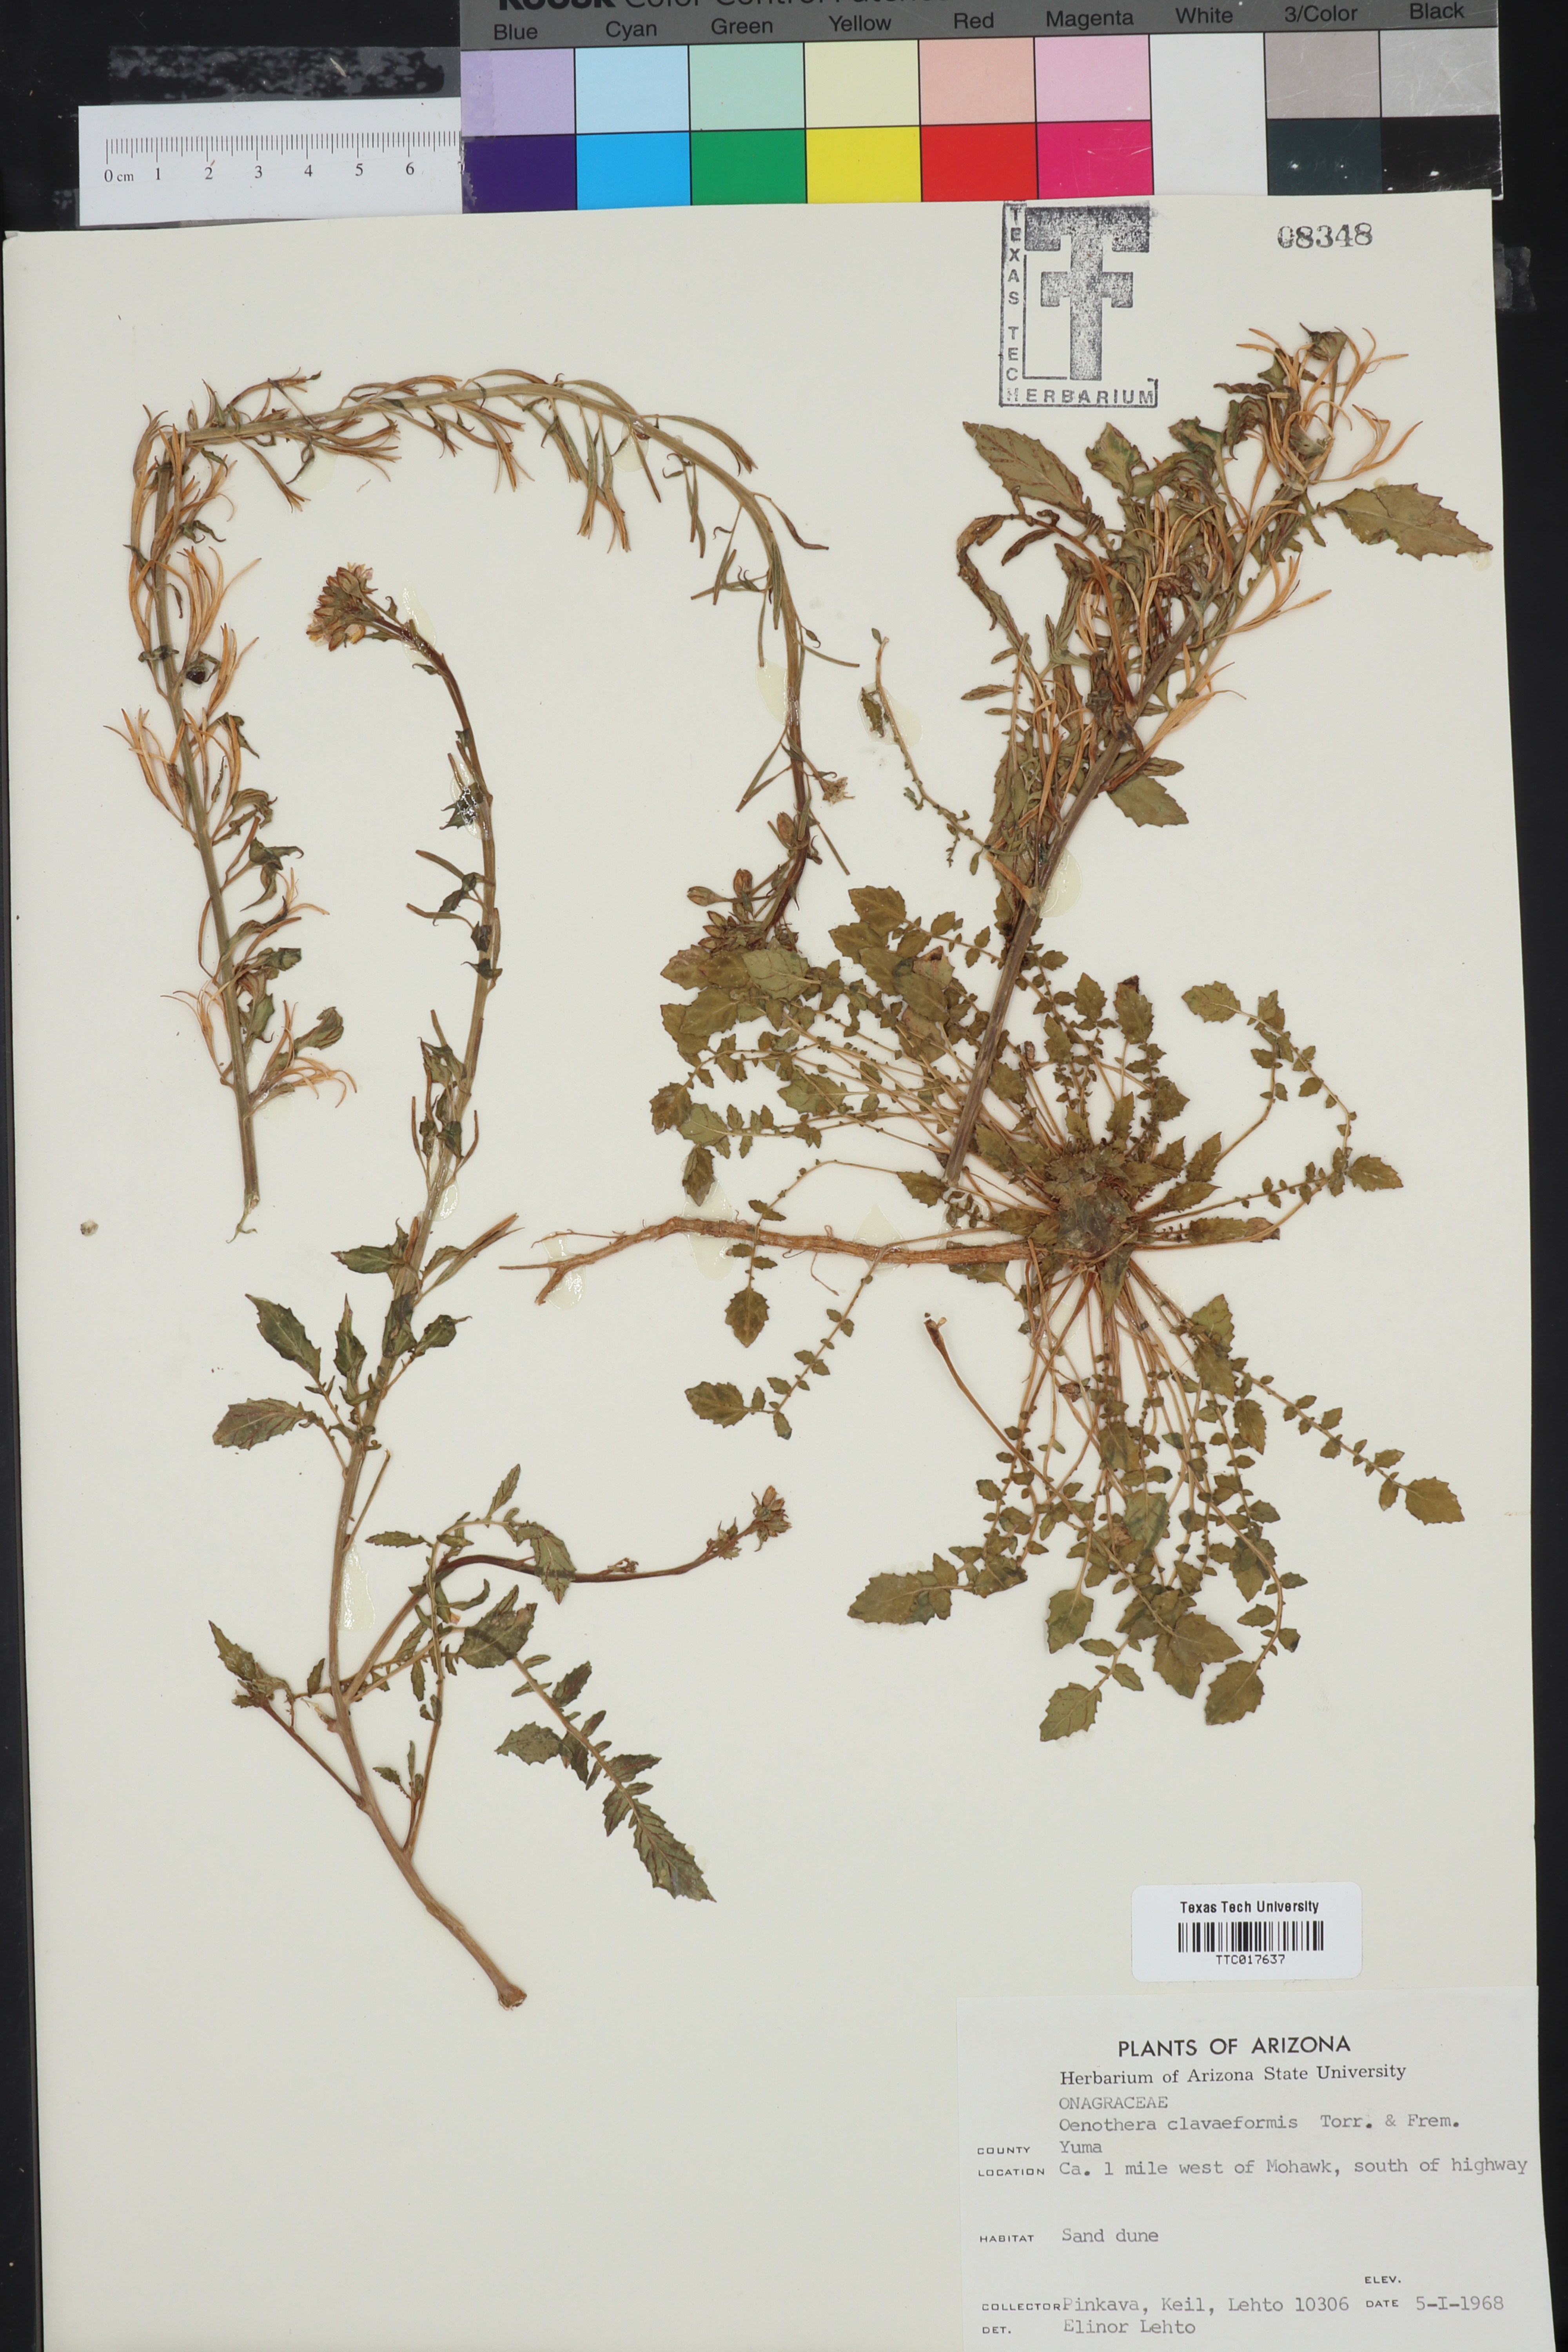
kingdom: Plantae
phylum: Tracheophyta
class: Magnoliopsida
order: Myrtales
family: Onagraceae
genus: Chylismia
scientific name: Chylismia claviformis
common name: Browneyes
